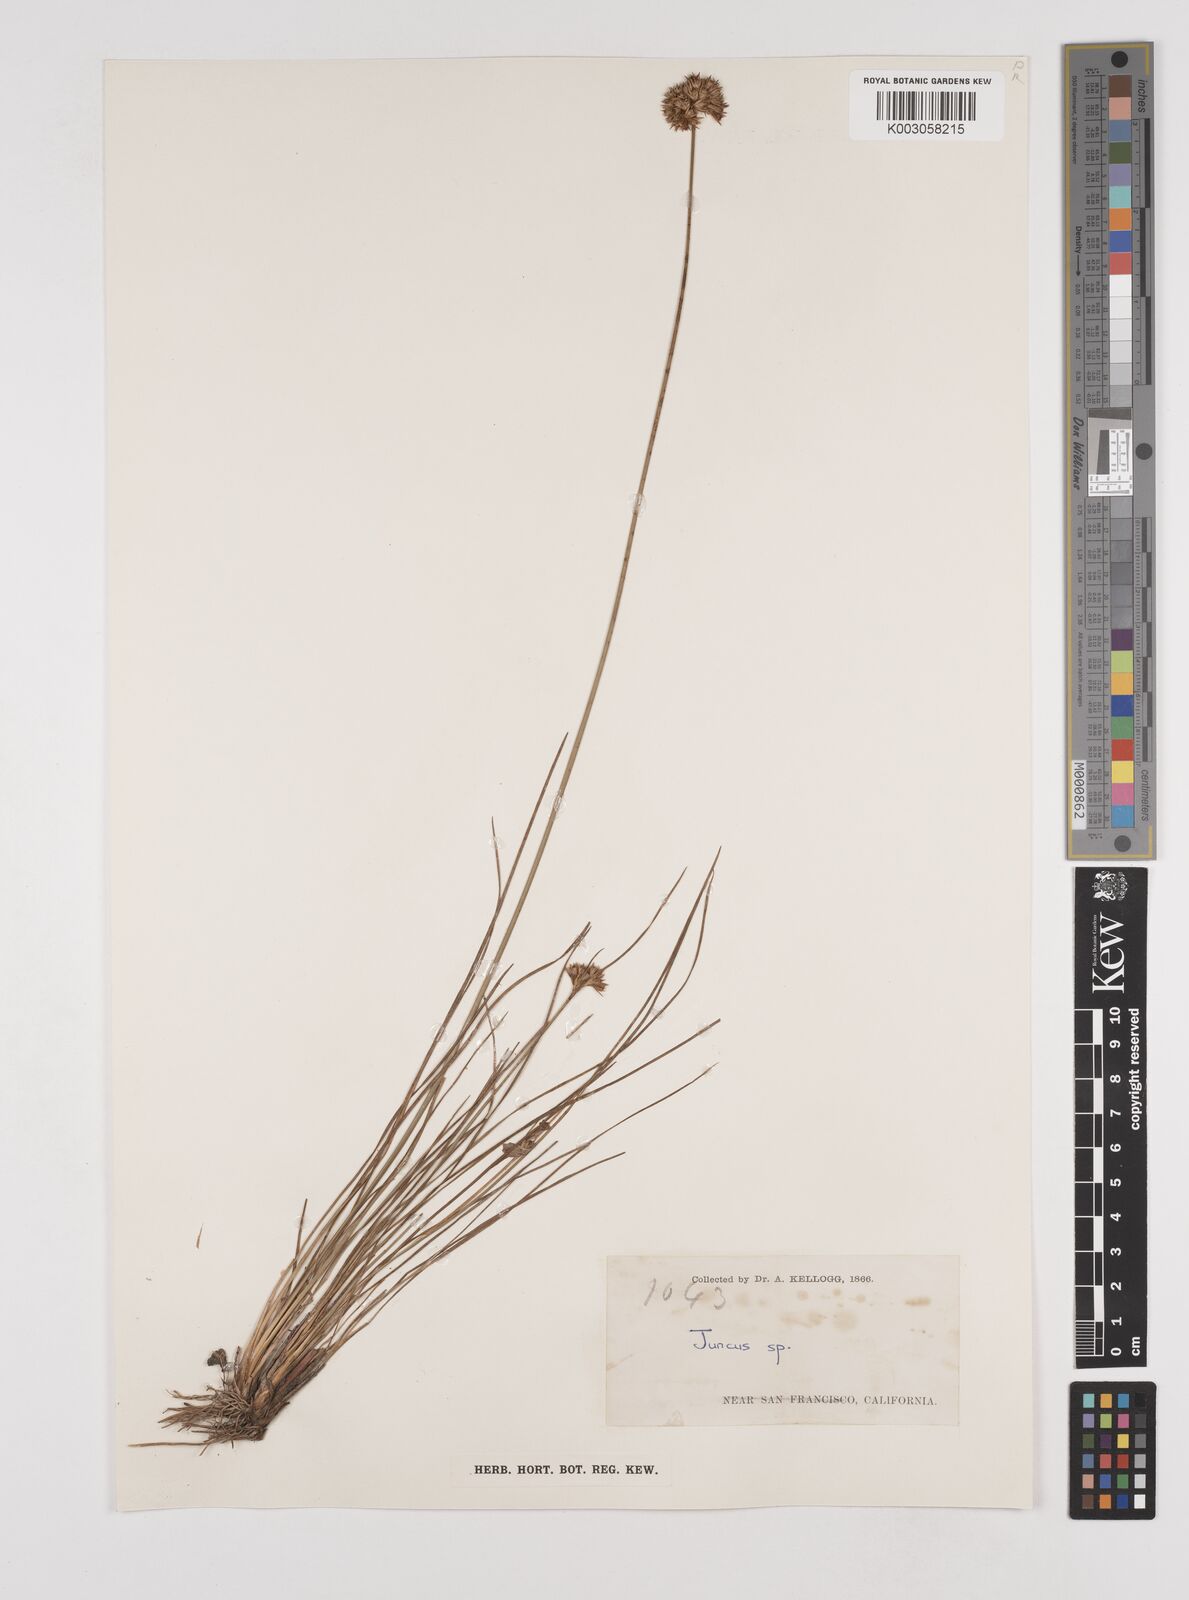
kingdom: Plantae
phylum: Tracheophyta
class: Liliopsida
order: Poales
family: Juncaceae
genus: Juncus
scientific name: Juncus
